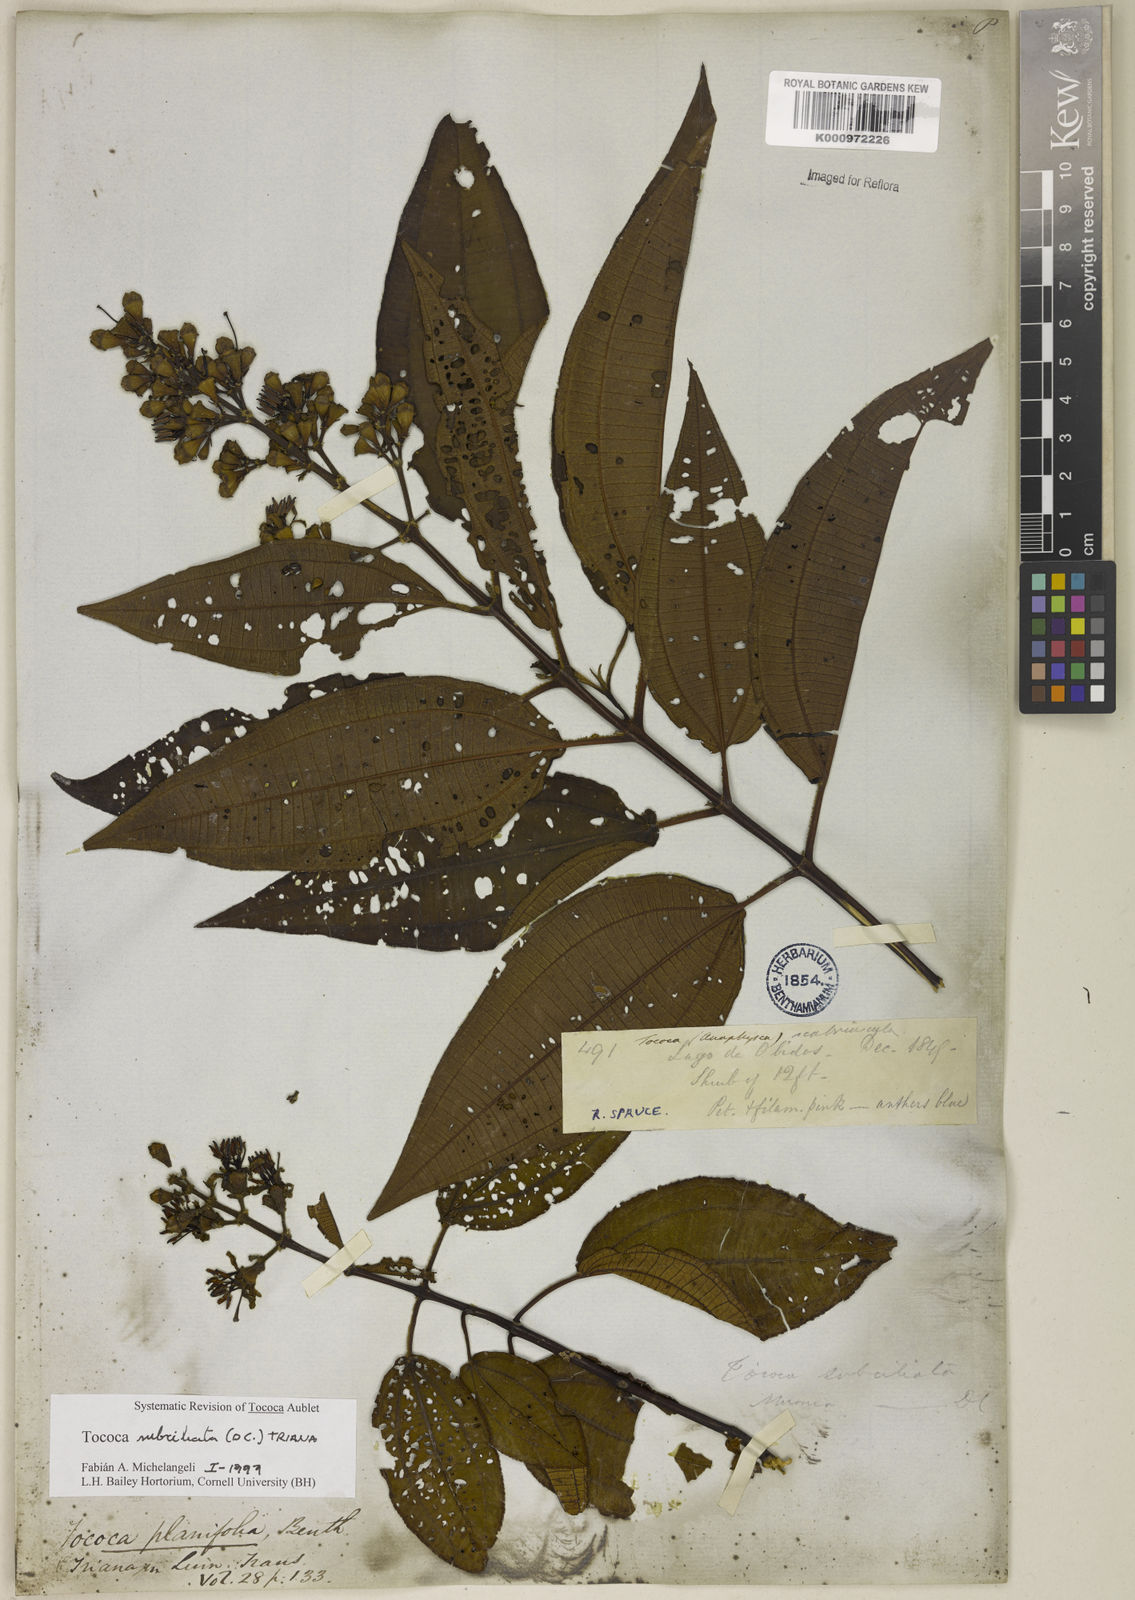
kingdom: Plantae
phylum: Tracheophyta
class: Magnoliopsida
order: Myrtales
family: Melastomataceae
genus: Miconia
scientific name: Miconia subciliata
